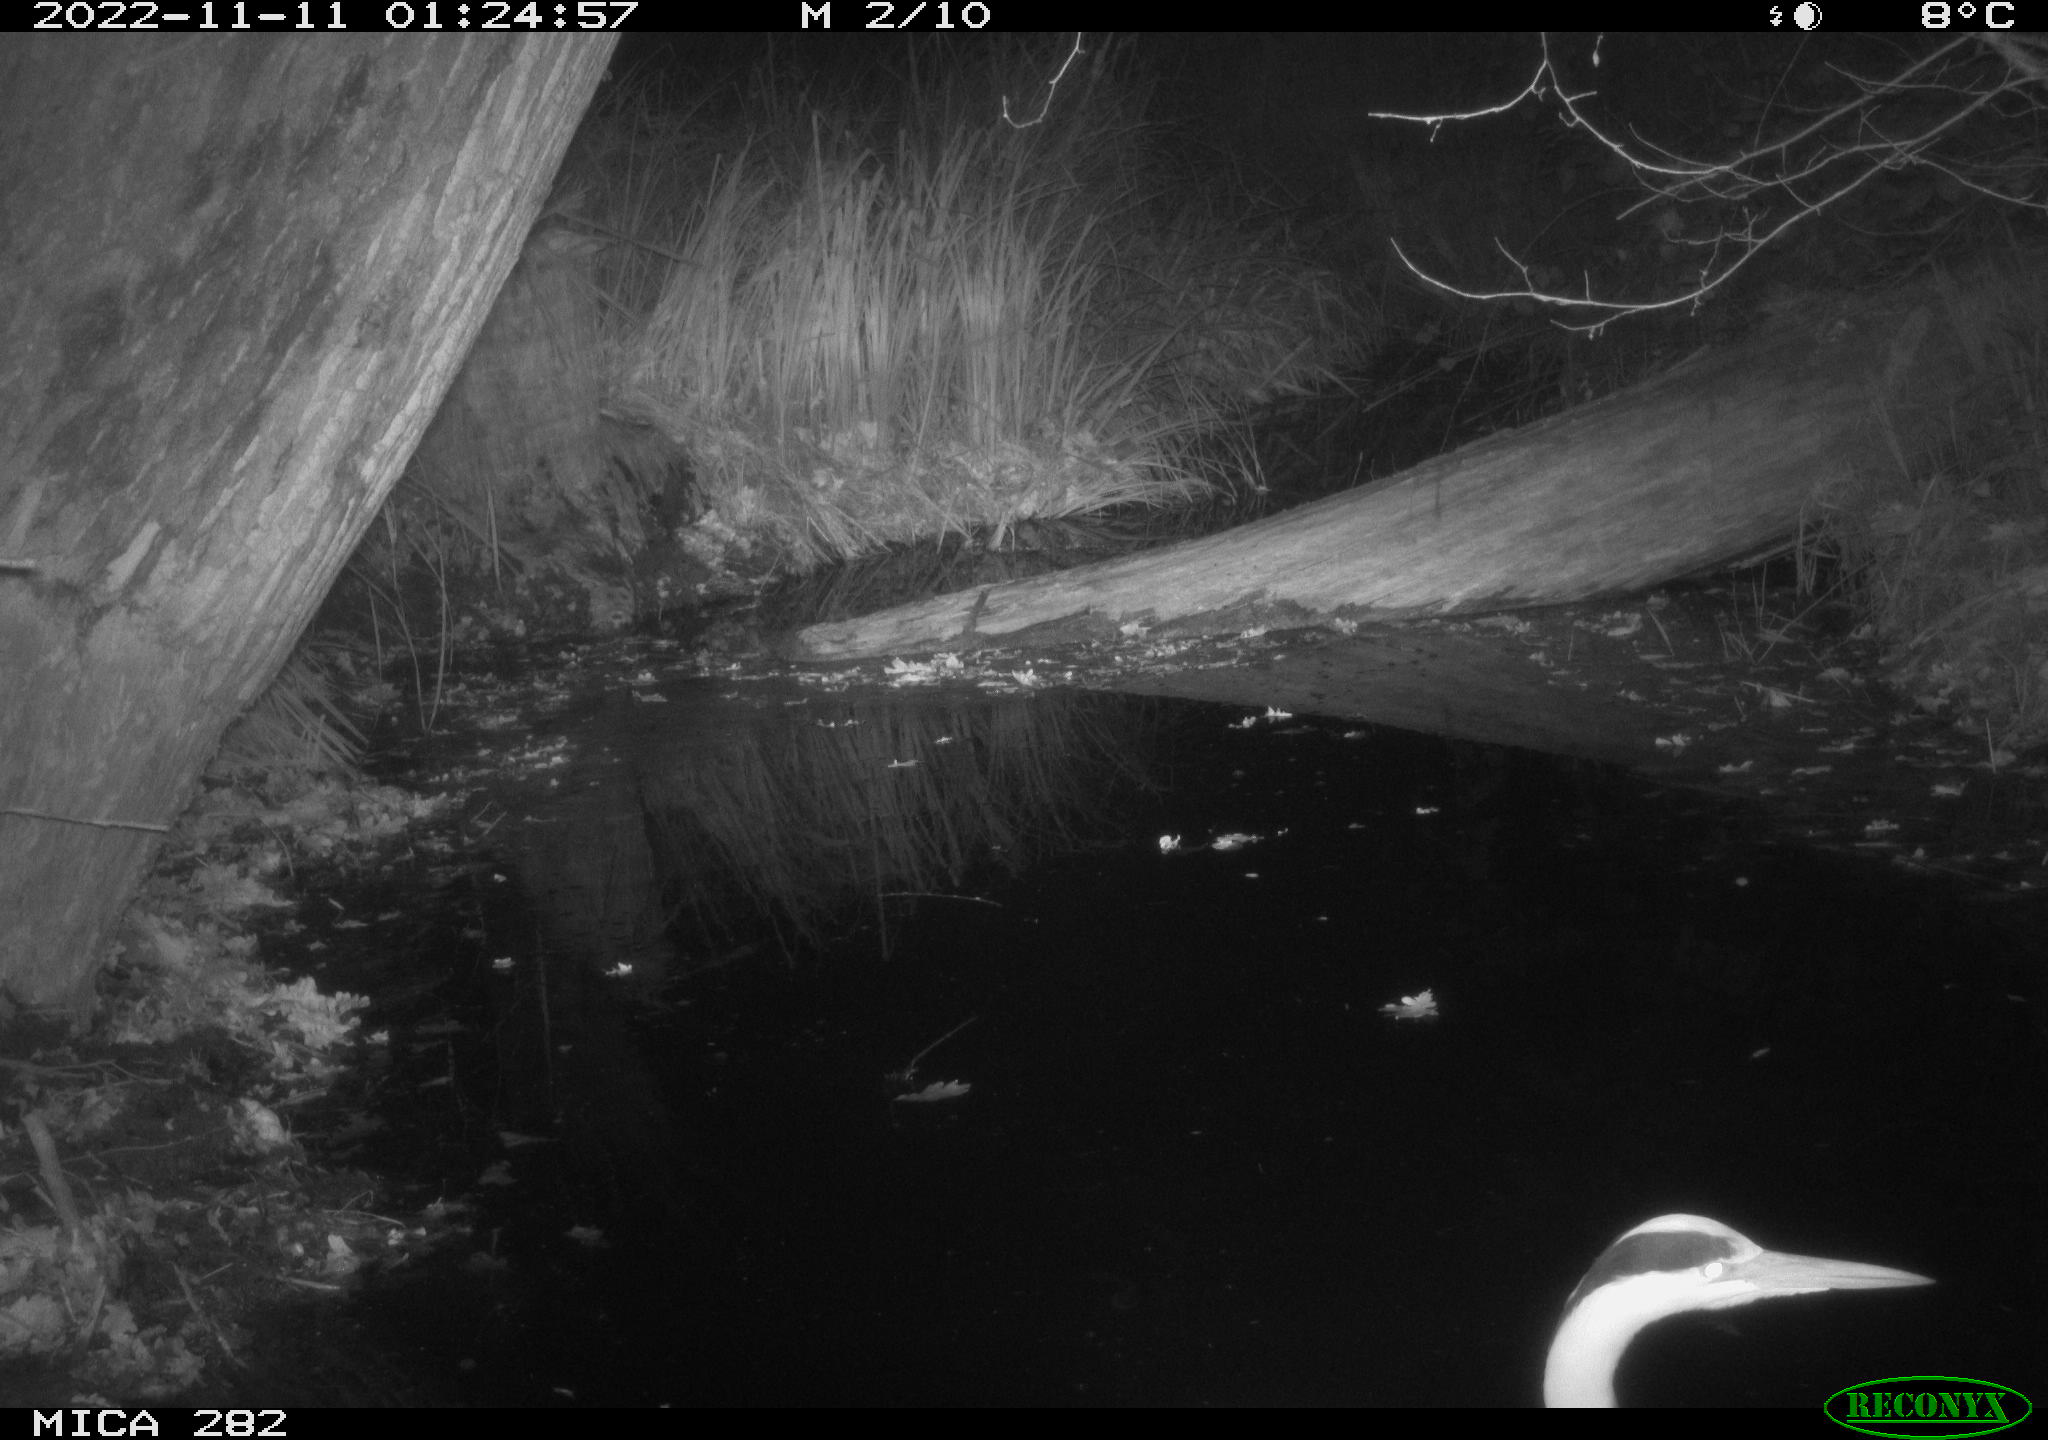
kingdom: Animalia
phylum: Chordata
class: Aves
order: Pelecaniformes
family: Ardeidae
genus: Ardea
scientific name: Ardea cinerea
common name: Grey heron
